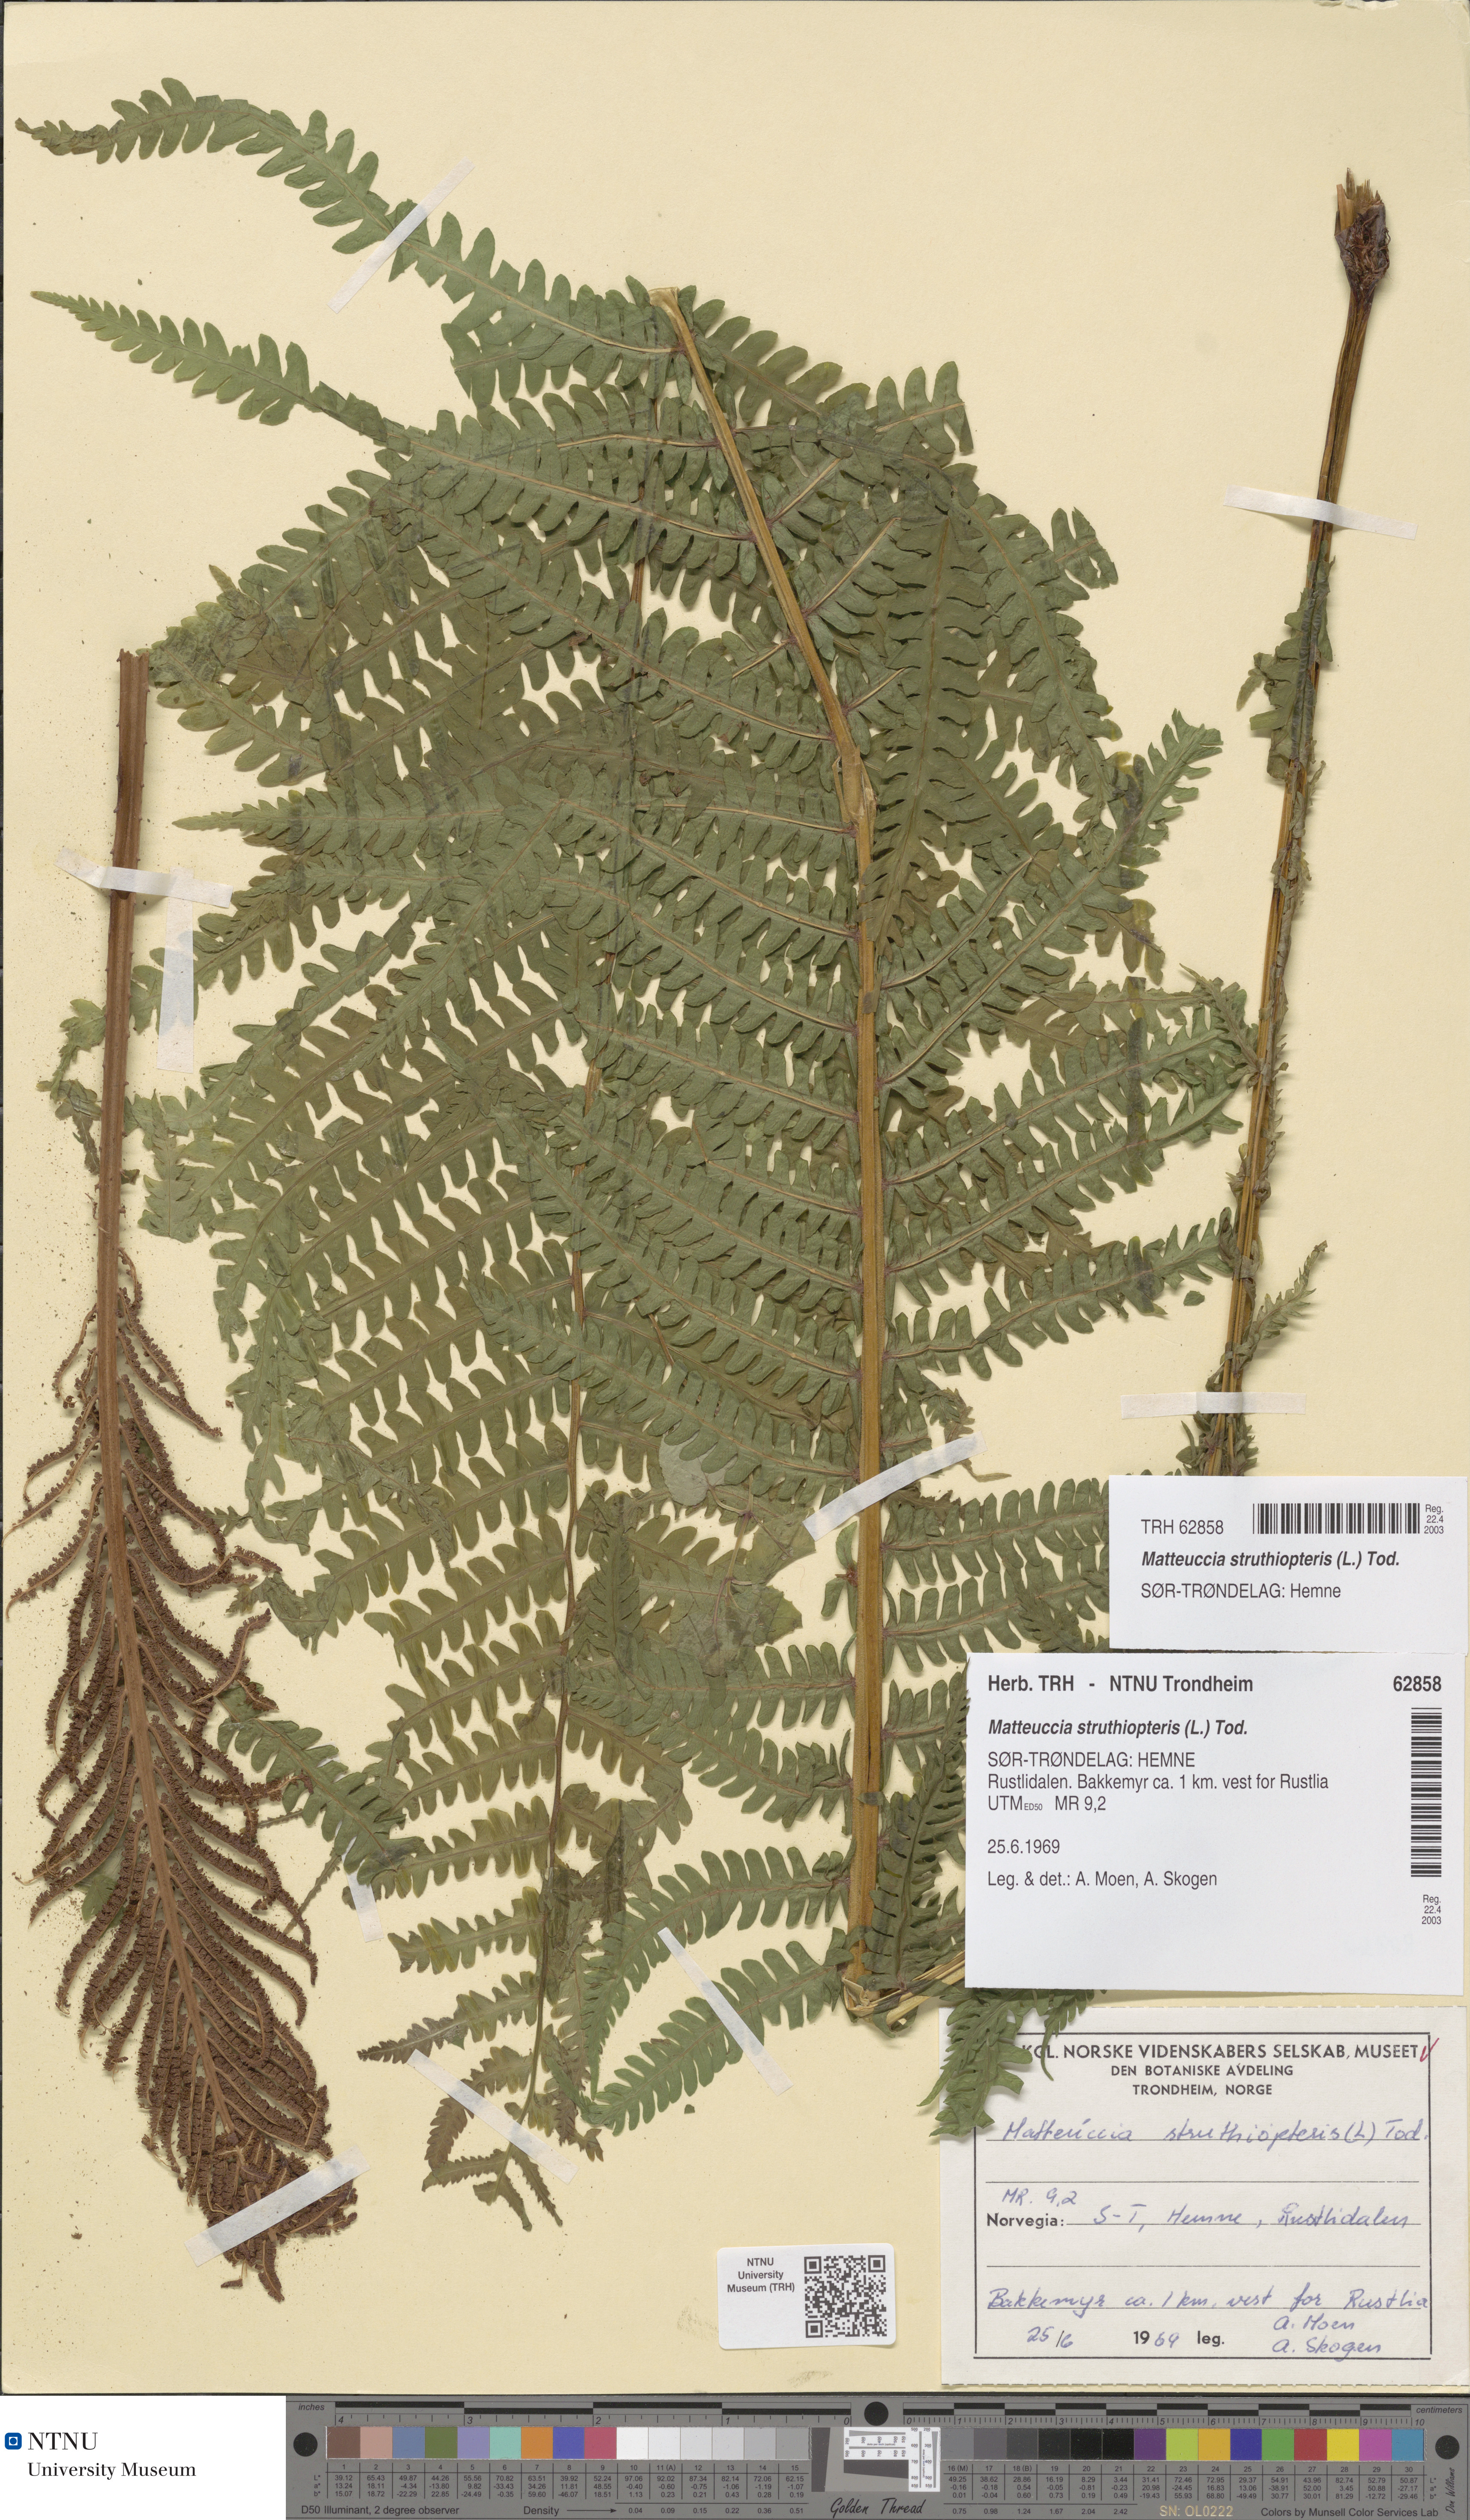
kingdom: Plantae
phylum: Tracheophyta
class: Polypodiopsida
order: Polypodiales
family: Onocleaceae
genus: Matteuccia
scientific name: Matteuccia struthiopteris
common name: Ostrich fern
